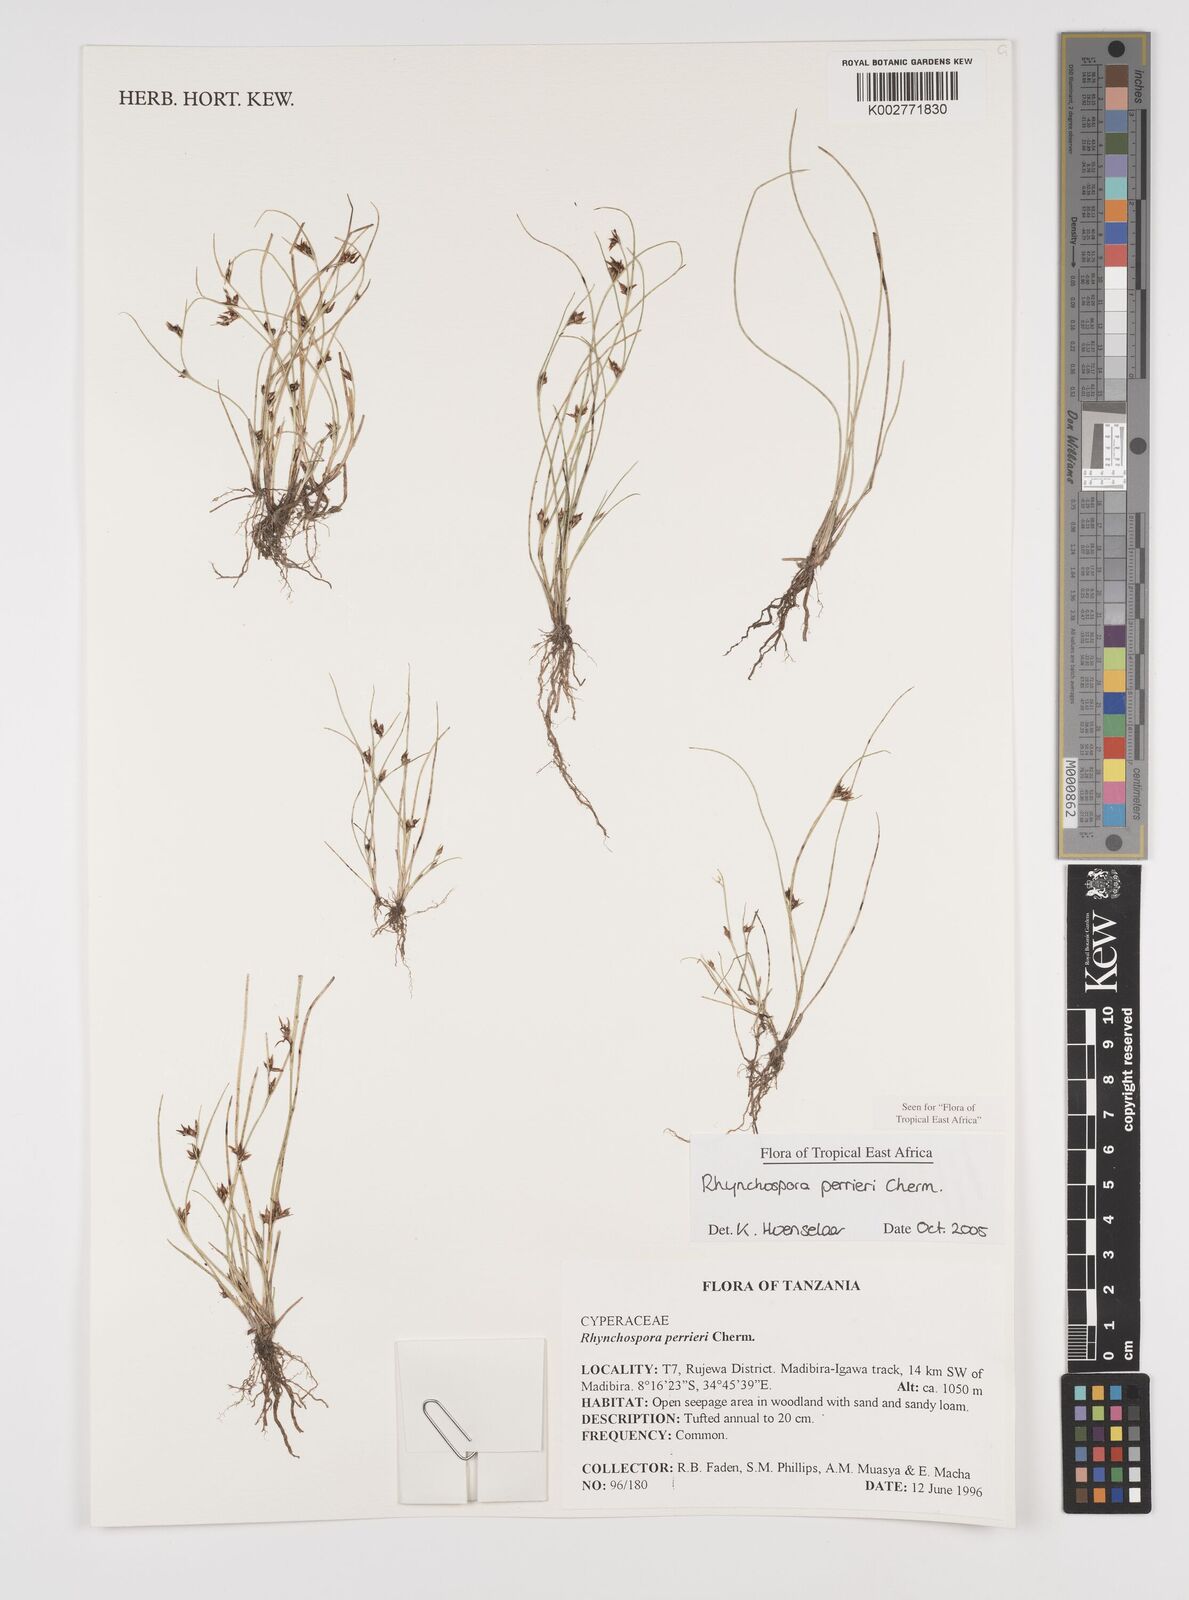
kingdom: Plantae
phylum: Tracheophyta
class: Liliopsida
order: Poales
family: Cyperaceae
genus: Rhynchospora
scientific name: Rhynchospora perrieri
